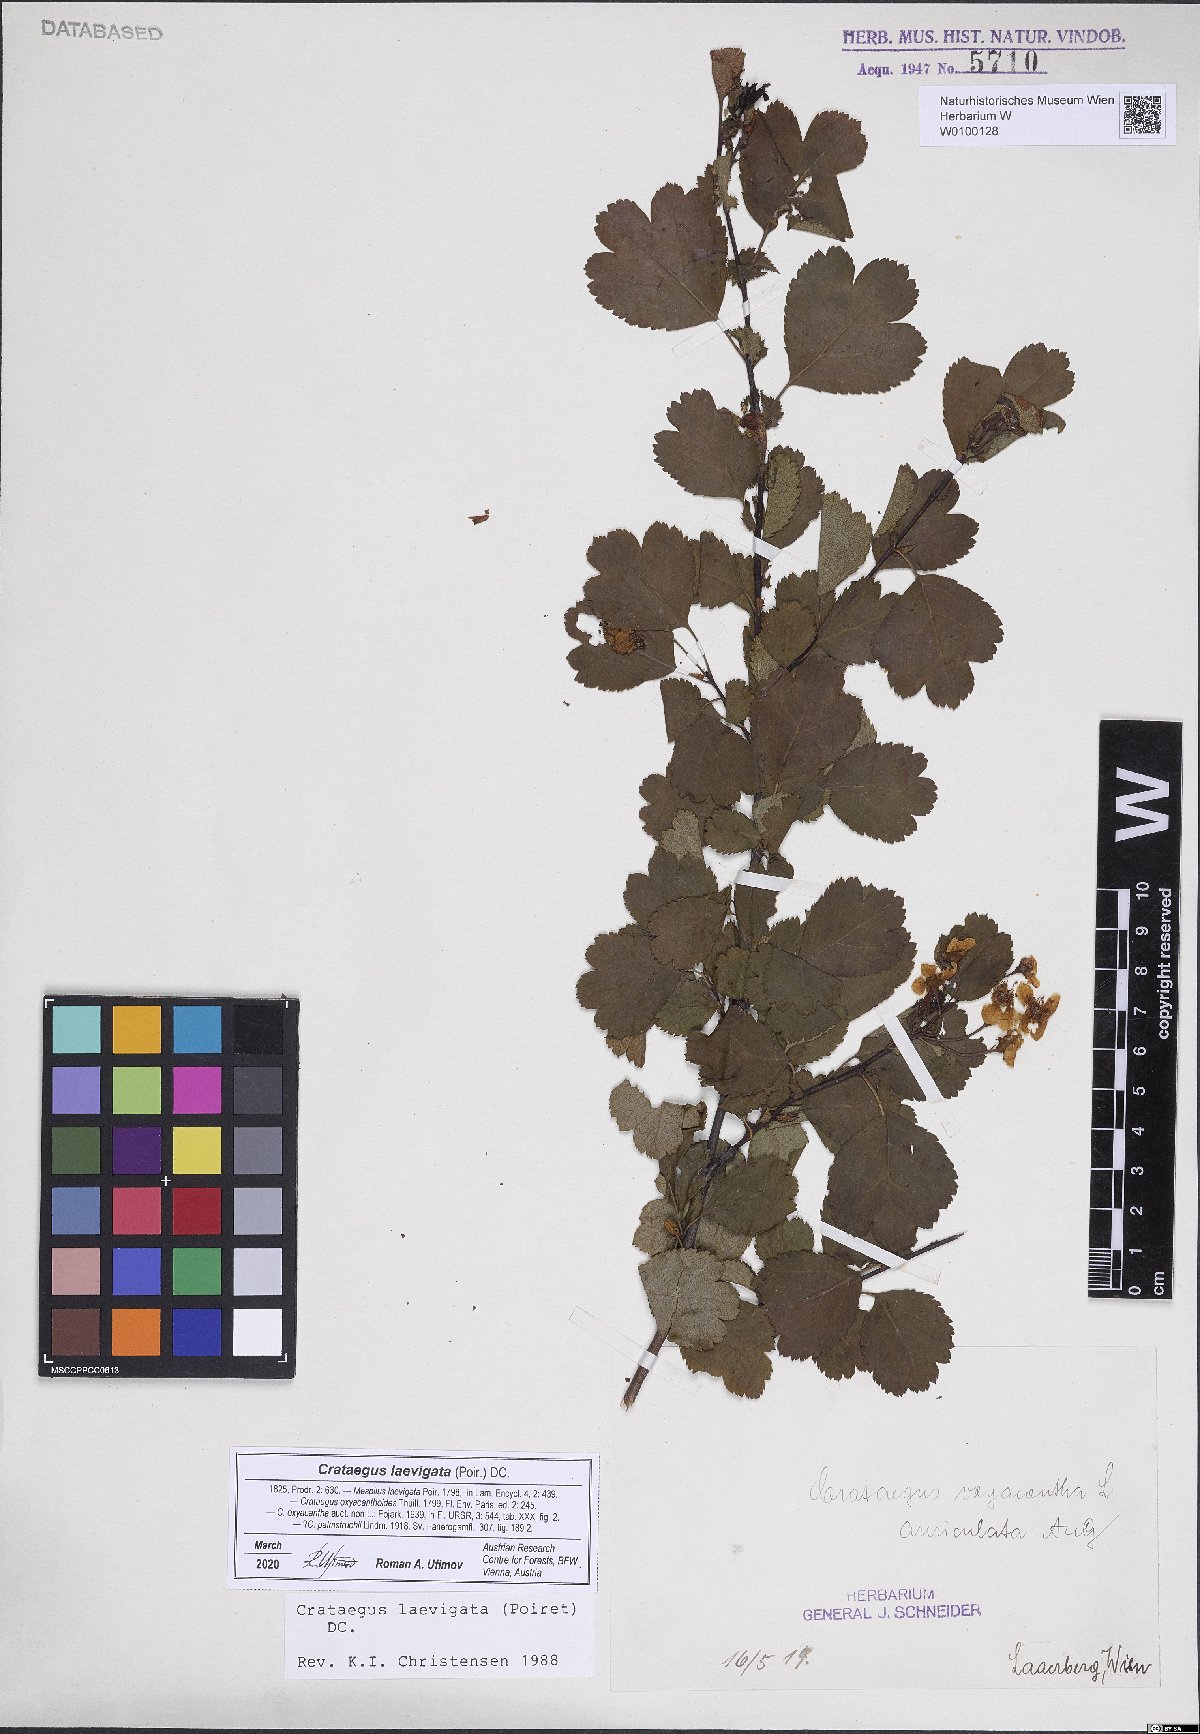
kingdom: Plantae
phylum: Tracheophyta
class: Magnoliopsida
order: Rosales
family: Rosaceae
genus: Crataegus
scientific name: Crataegus laevigata
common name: Midland hawthorn
